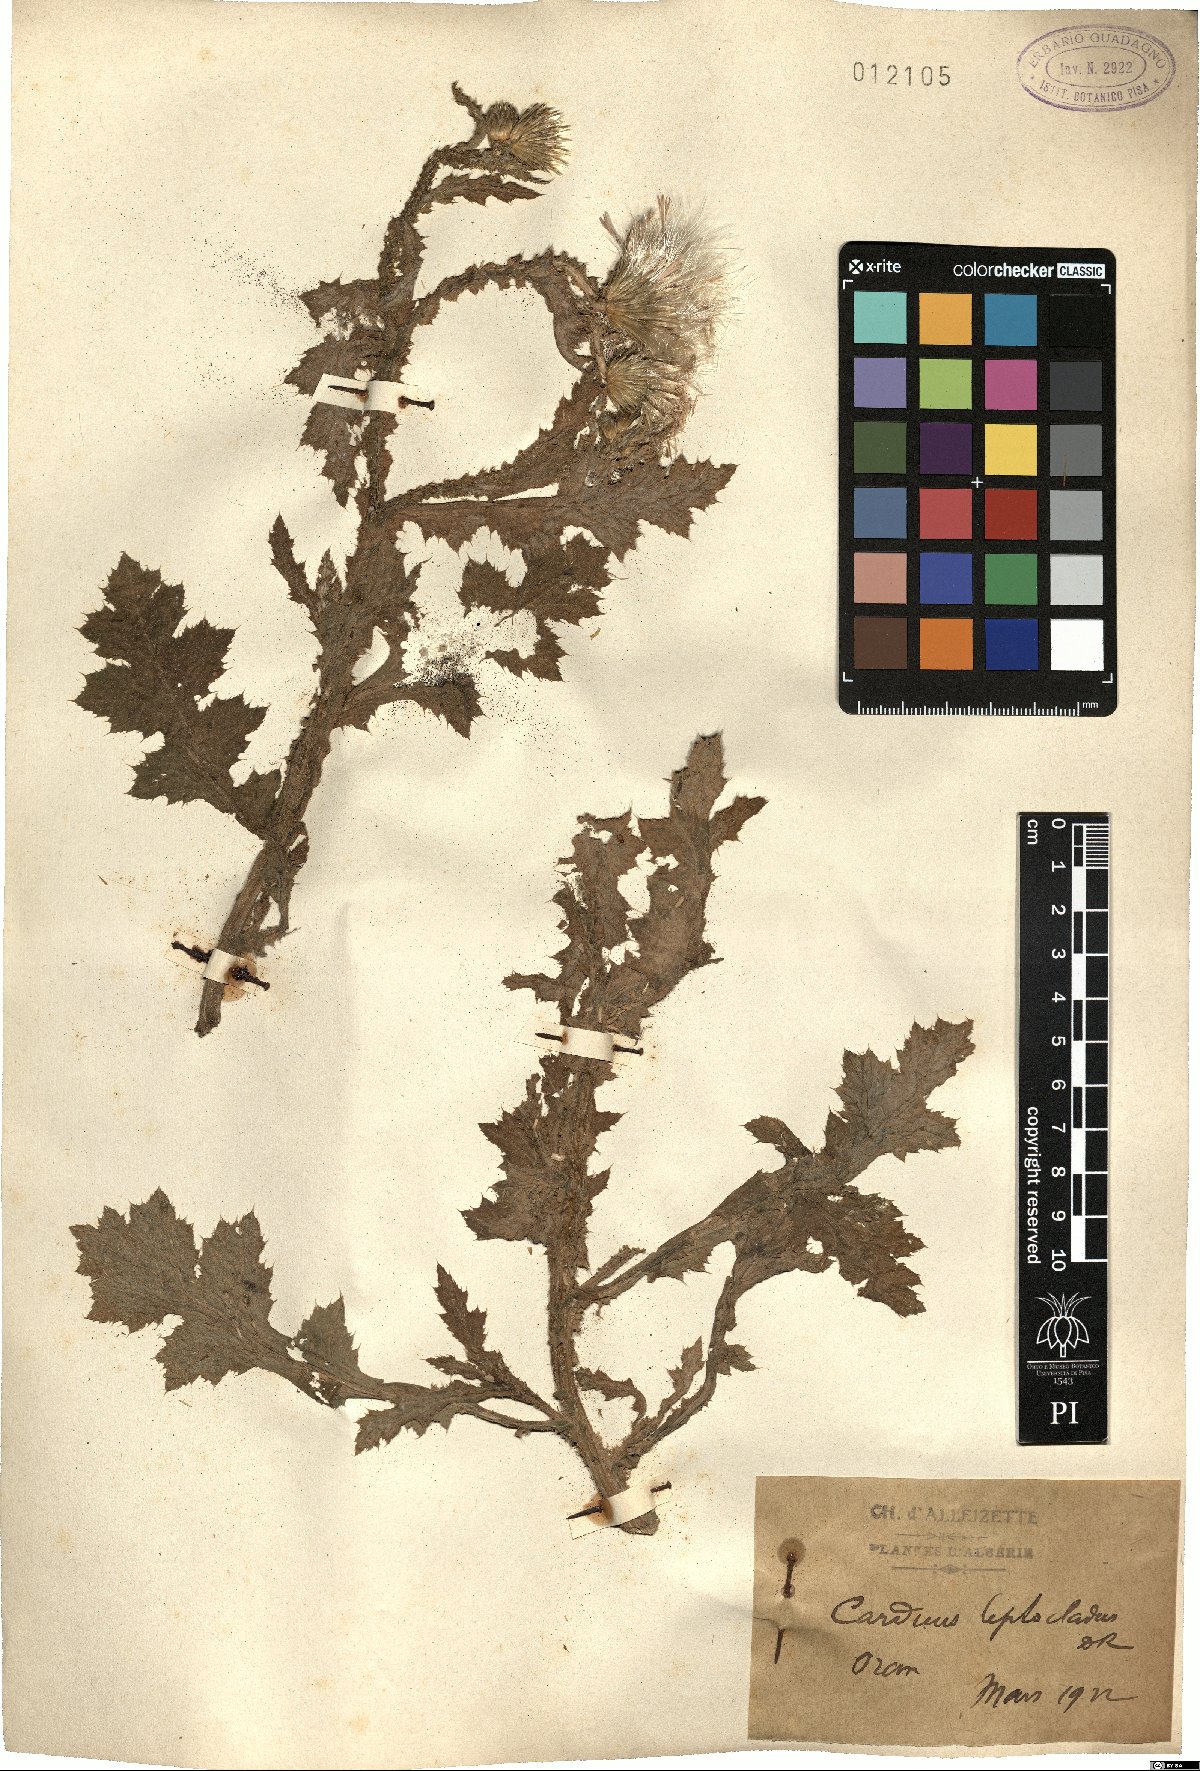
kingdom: Plantae
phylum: Tracheophyta
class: Magnoliopsida
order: Asterales
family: Asteraceae
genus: Carduus
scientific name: Carduus leptocladus
